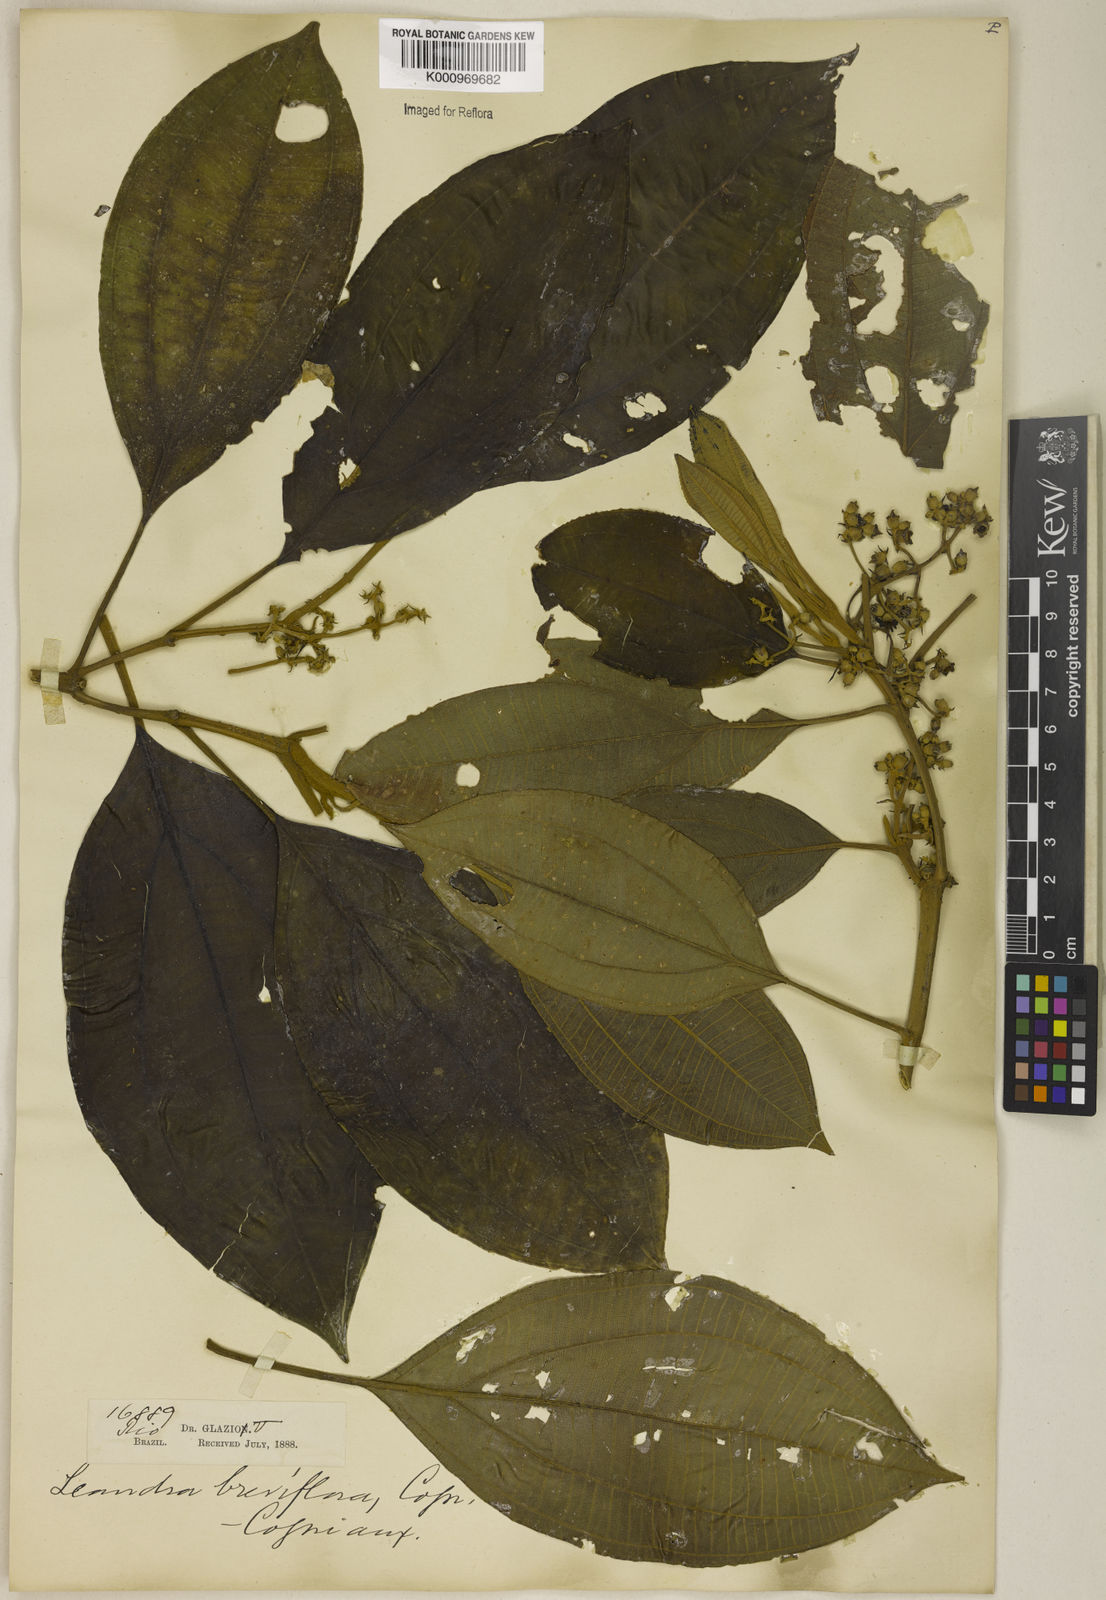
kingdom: Plantae
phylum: Tracheophyta
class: Magnoliopsida
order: Myrtales
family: Melastomataceae
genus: Miconia
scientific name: Miconia breviflora
